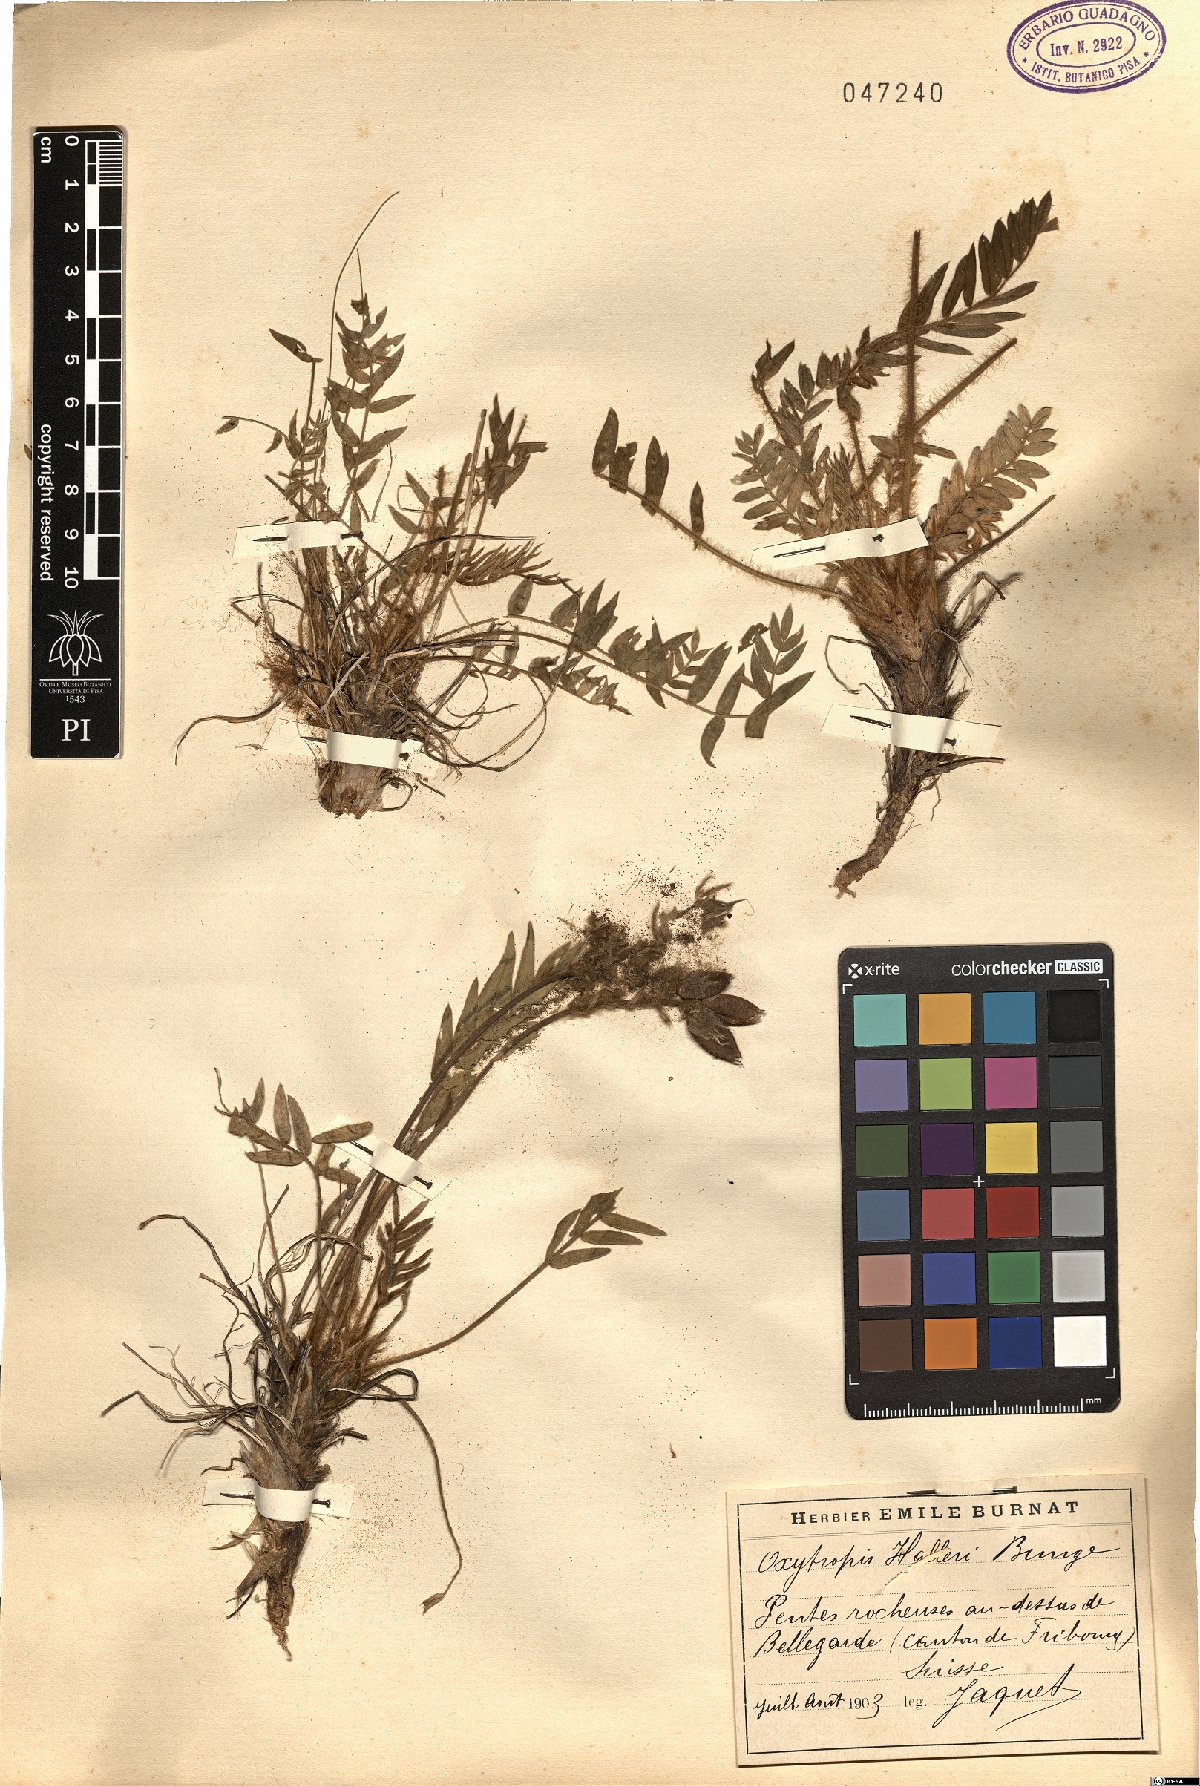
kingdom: Plantae
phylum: Tracheophyta
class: Magnoliopsida
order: Fabales
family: Fabaceae
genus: Oxytropis
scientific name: Oxytropis halleri
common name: Purple oxytropis
